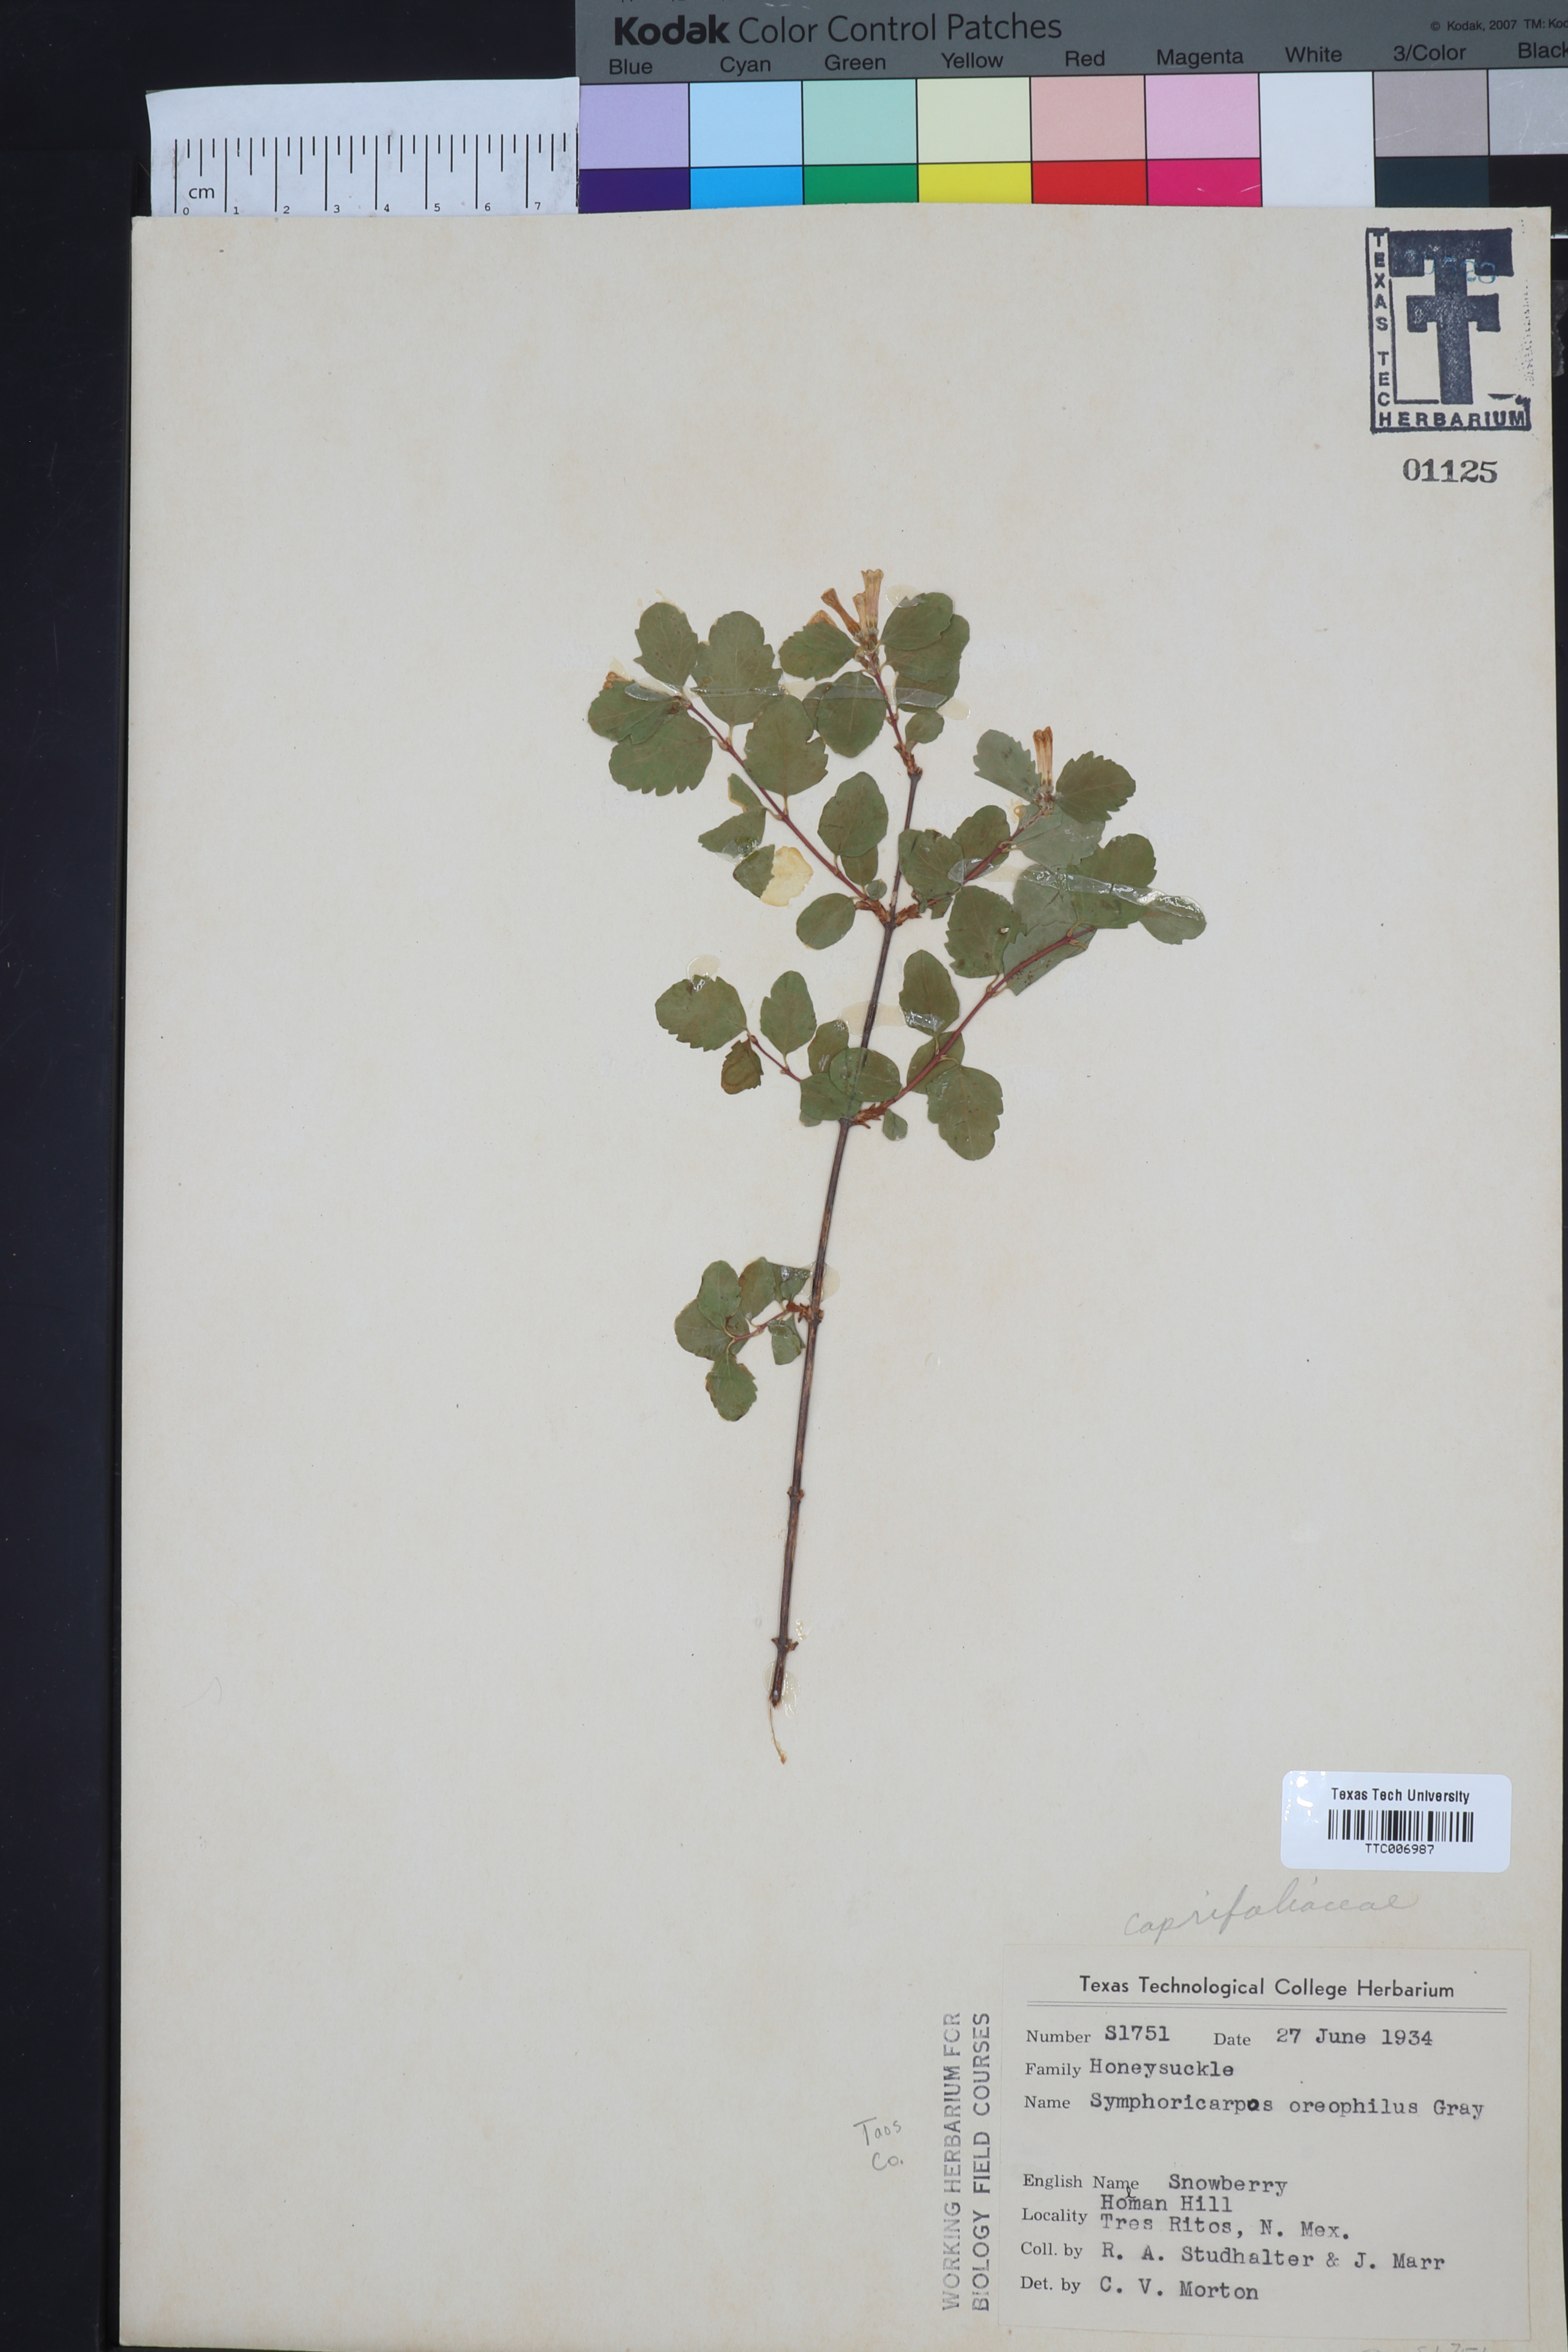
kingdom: Plantae
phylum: Tracheophyta
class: Magnoliopsida
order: Dipsacales
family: Caprifoliaceae
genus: Symphoricarpos
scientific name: Symphoricarpos oreophilus
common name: Mountain snowberry
